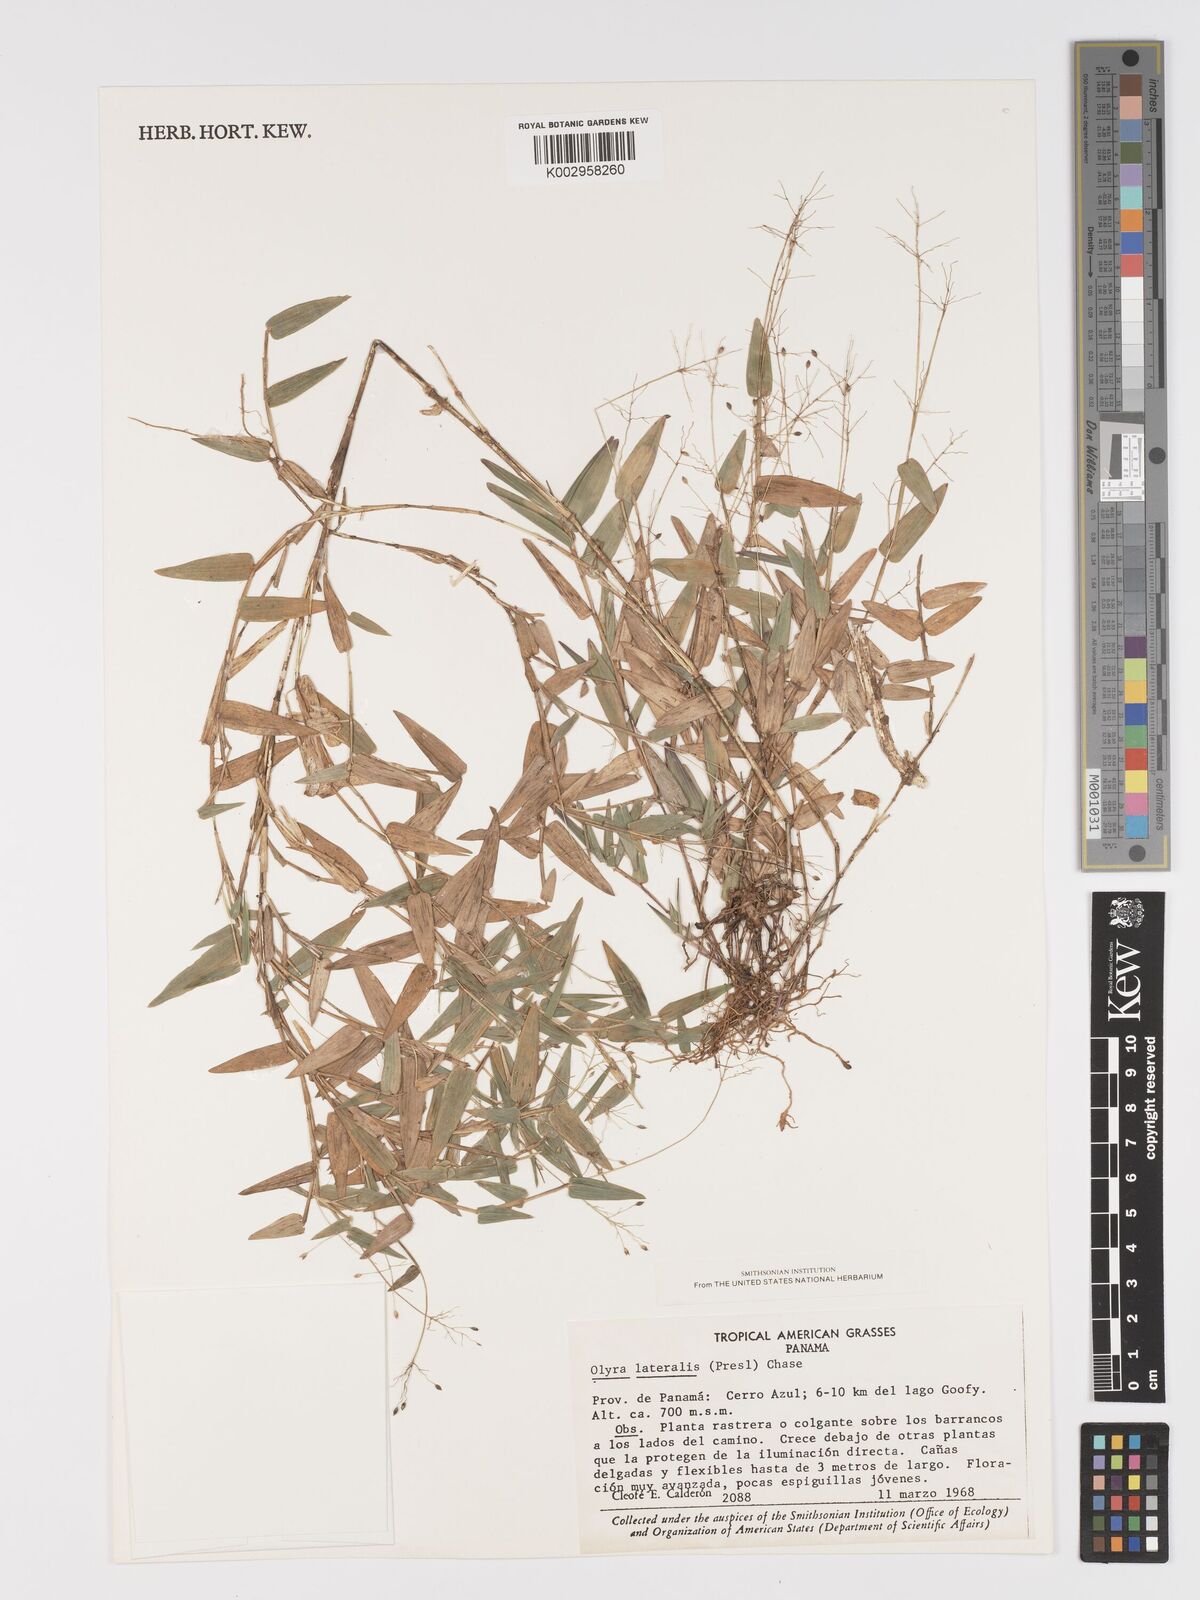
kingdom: Plantae
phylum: Tracheophyta
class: Liliopsida
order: Poales
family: Poaceae
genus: Parodiolyra
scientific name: Parodiolyra lateralis
